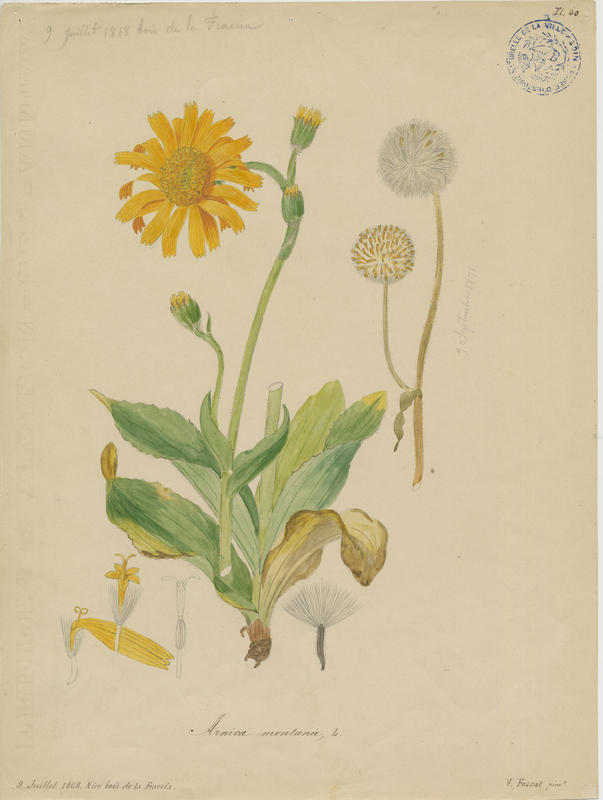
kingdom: Plantae
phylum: Tracheophyta
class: Magnoliopsida
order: Asterales
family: Asteraceae
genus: Arnica
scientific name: Arnica montana
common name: Leopard's bane
